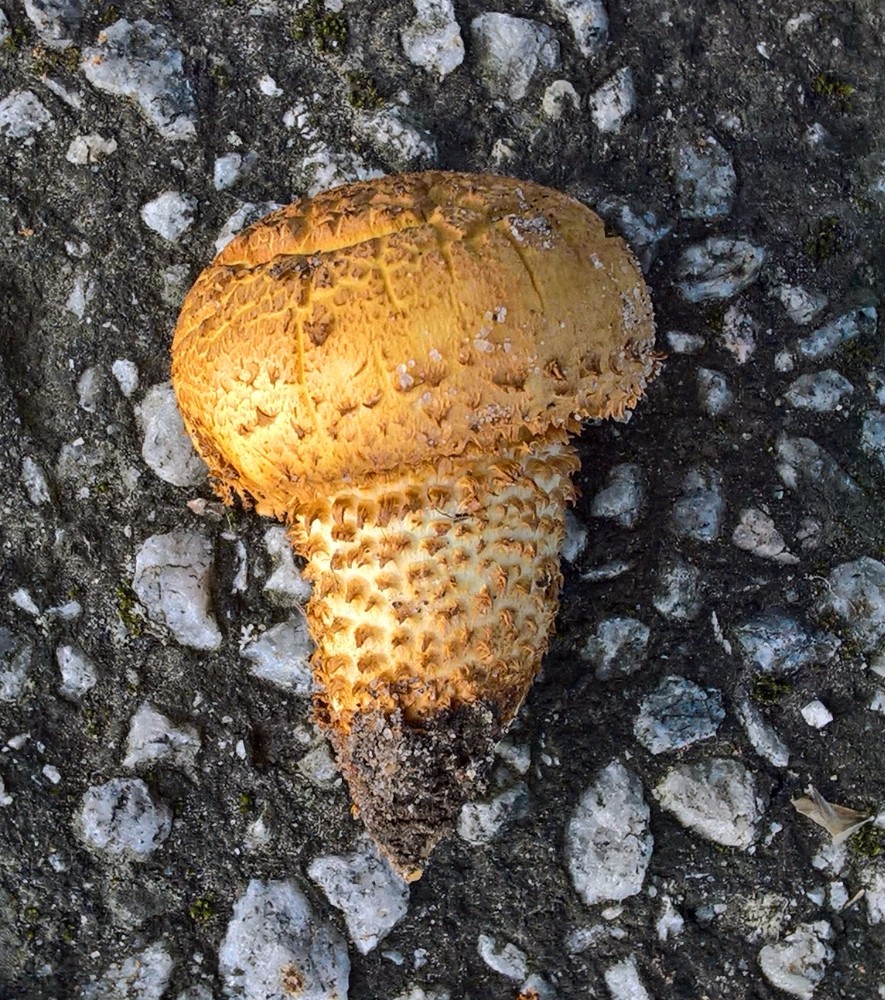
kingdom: Fungi
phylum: Basidiomycota
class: Agaricomycetes
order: Agaricales
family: Strophariaceae
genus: Pholiota
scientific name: Pholiota squarrosa
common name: krumskællet skælhat
